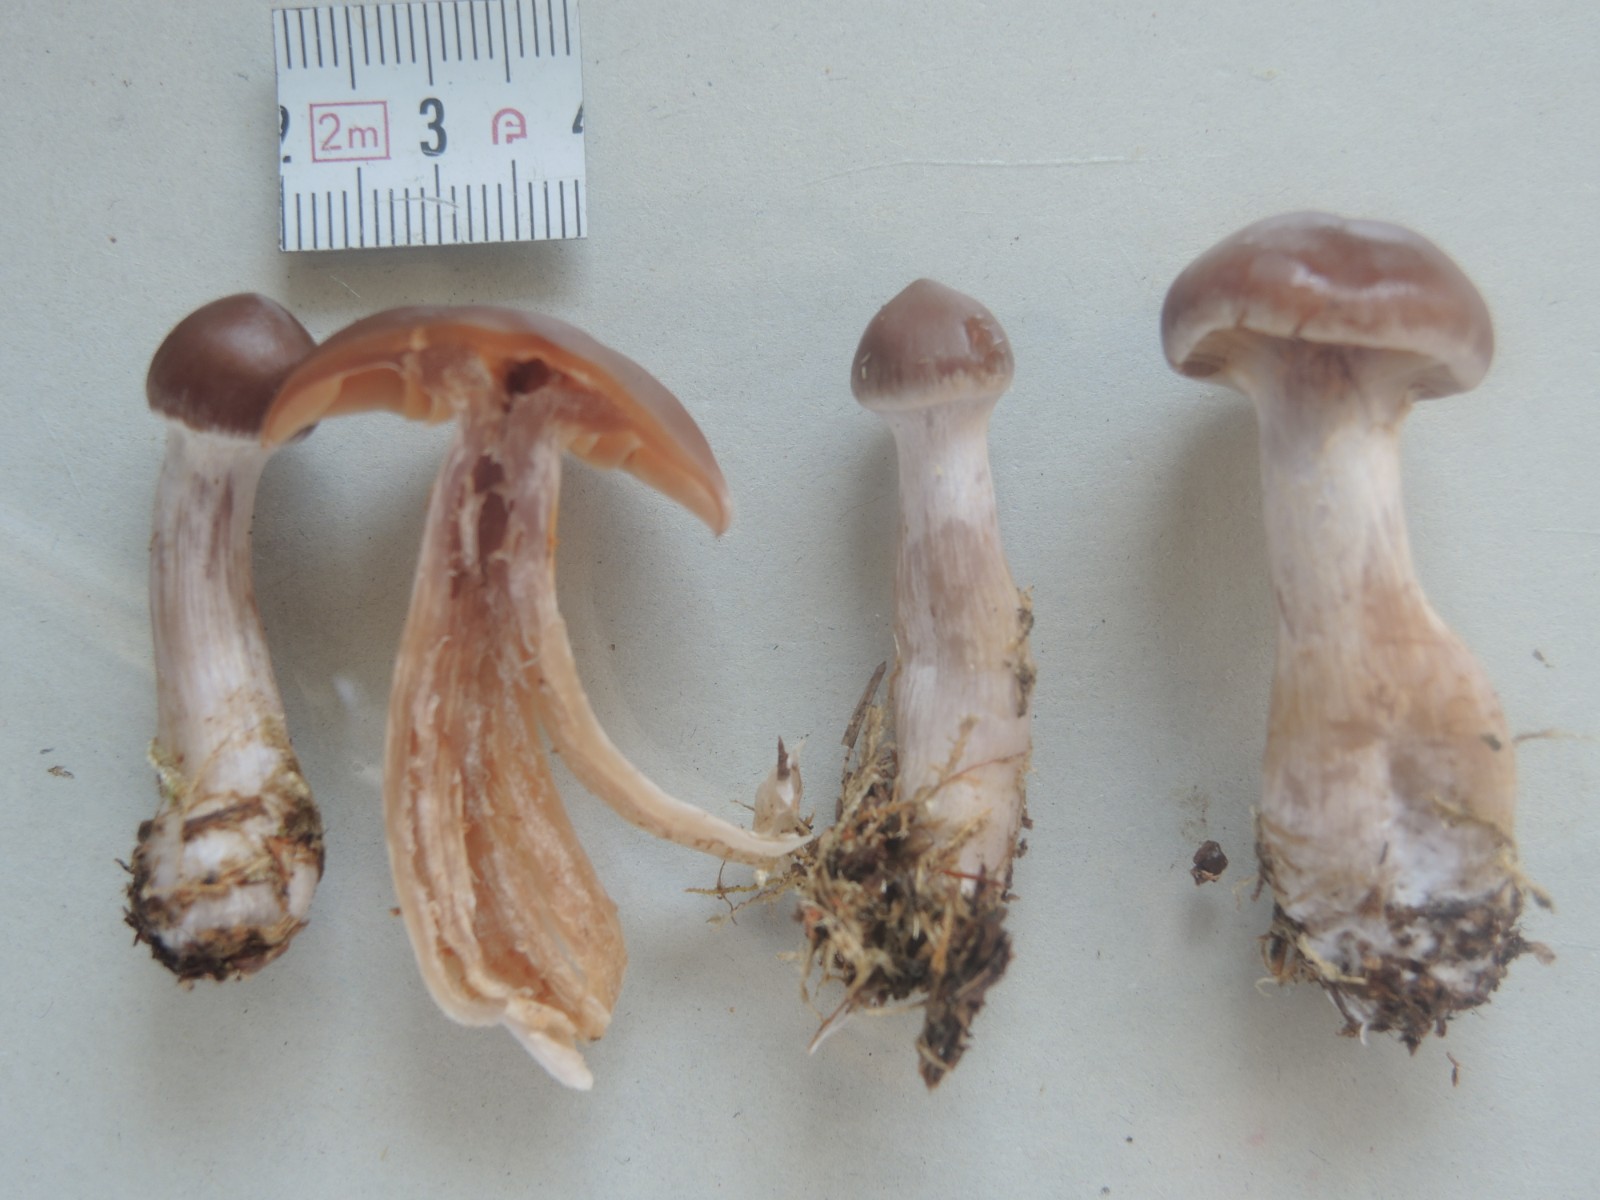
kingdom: Fungi
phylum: Basidiomycota
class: Agaricomycetes
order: Agaricales
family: Cortinariaceae
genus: Cortinarius
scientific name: Cortinarius kauffmanianus
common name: plantage-slørhat
